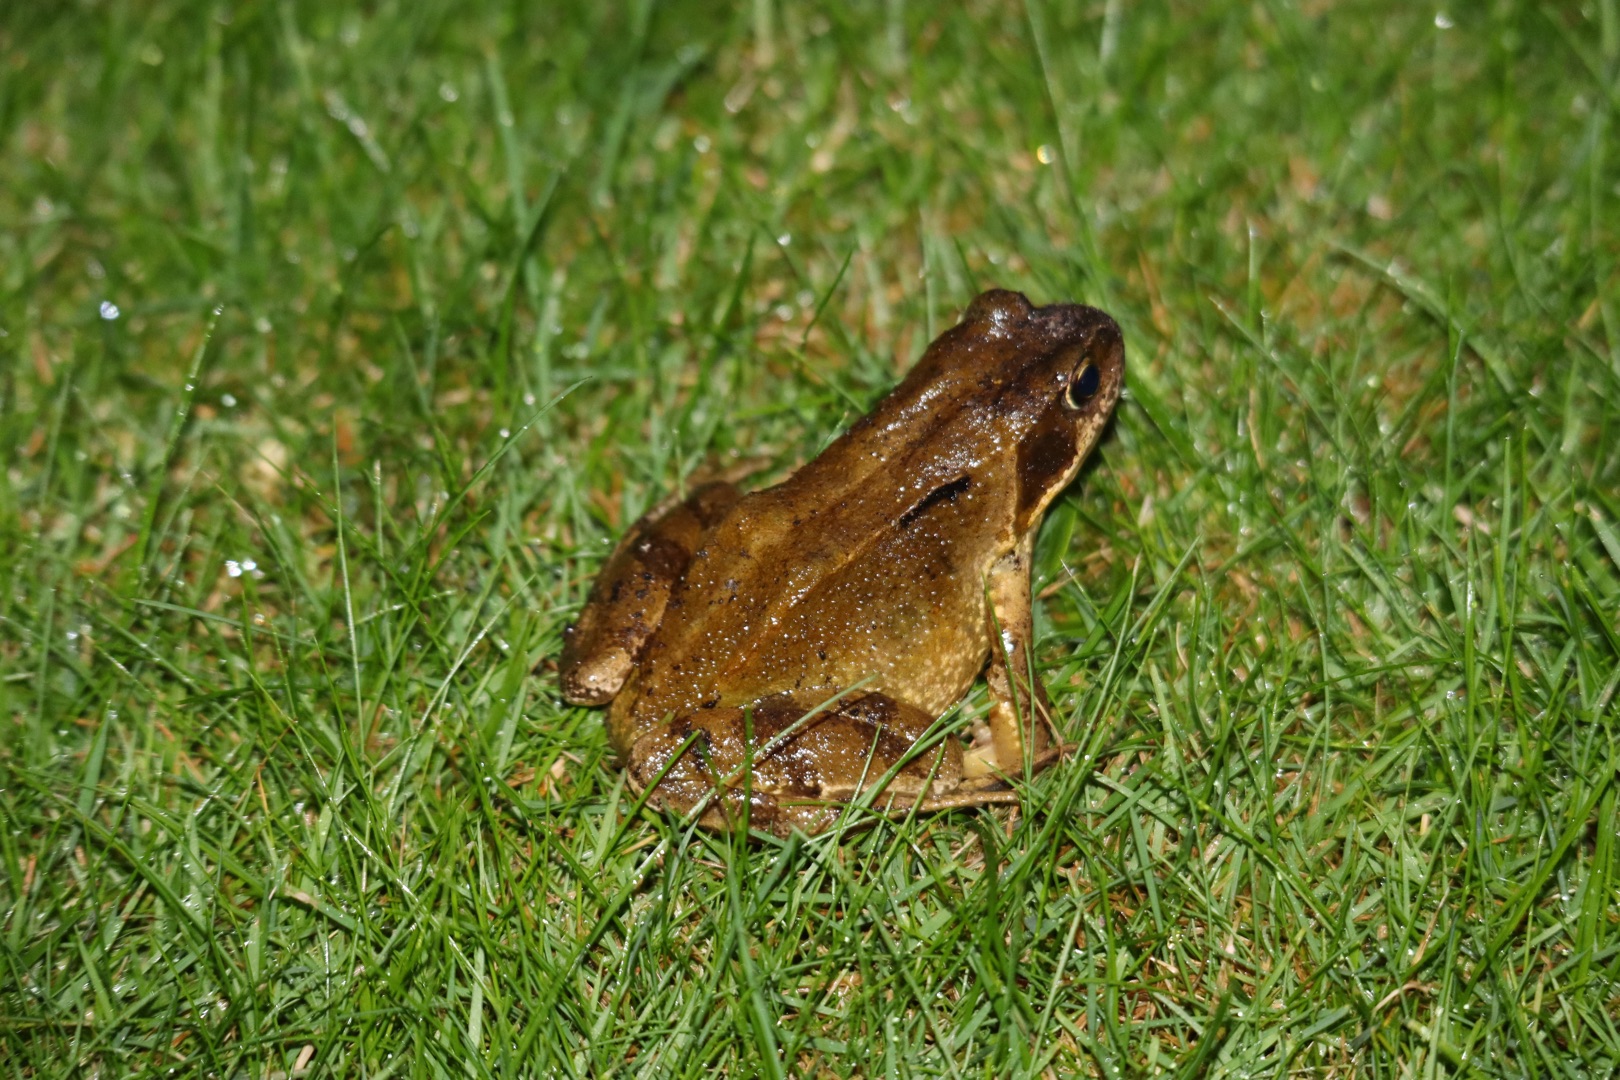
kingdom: Animalia
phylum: Chordata
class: Amphibia
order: Anura
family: Ranidae
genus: Rana
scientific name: Rana temporaria
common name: Butsnudet frø
